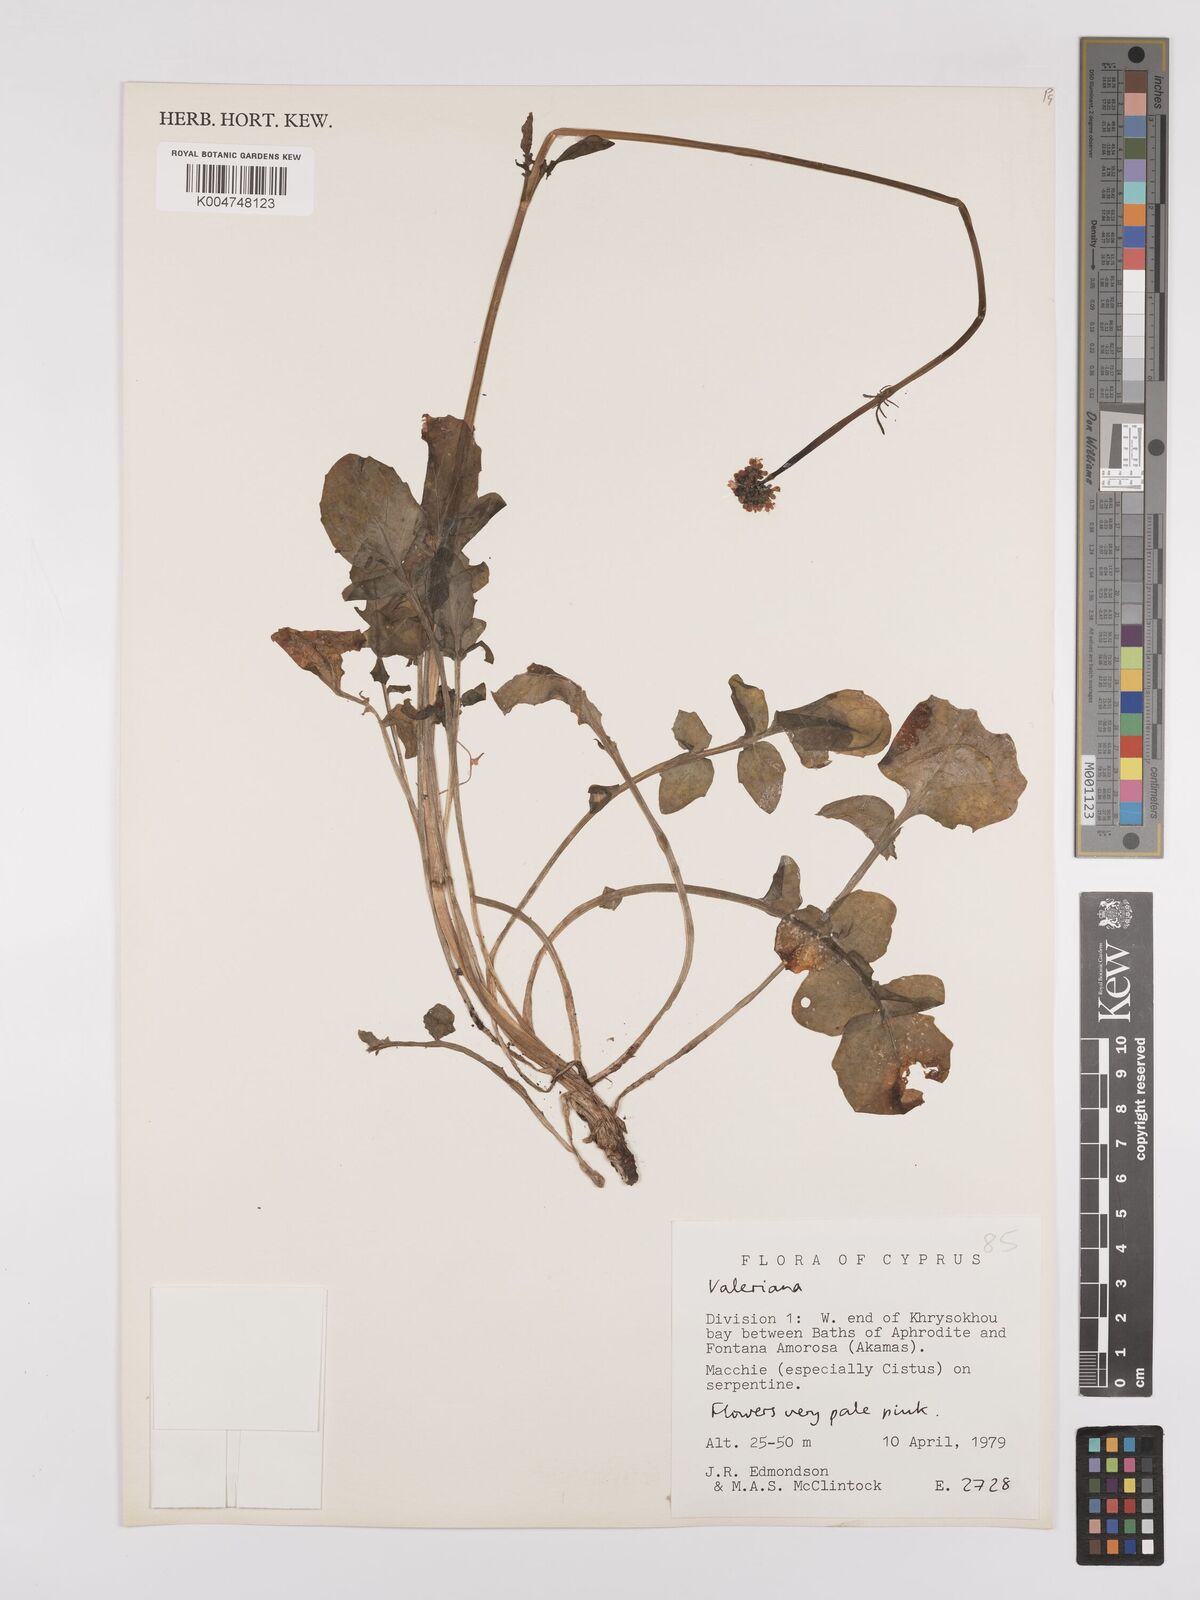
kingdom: Plantae
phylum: Tracheophyta
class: Magnoliopsida
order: Dipsacales
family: Caprifoliaceae
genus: Valeriana
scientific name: Valeriana
